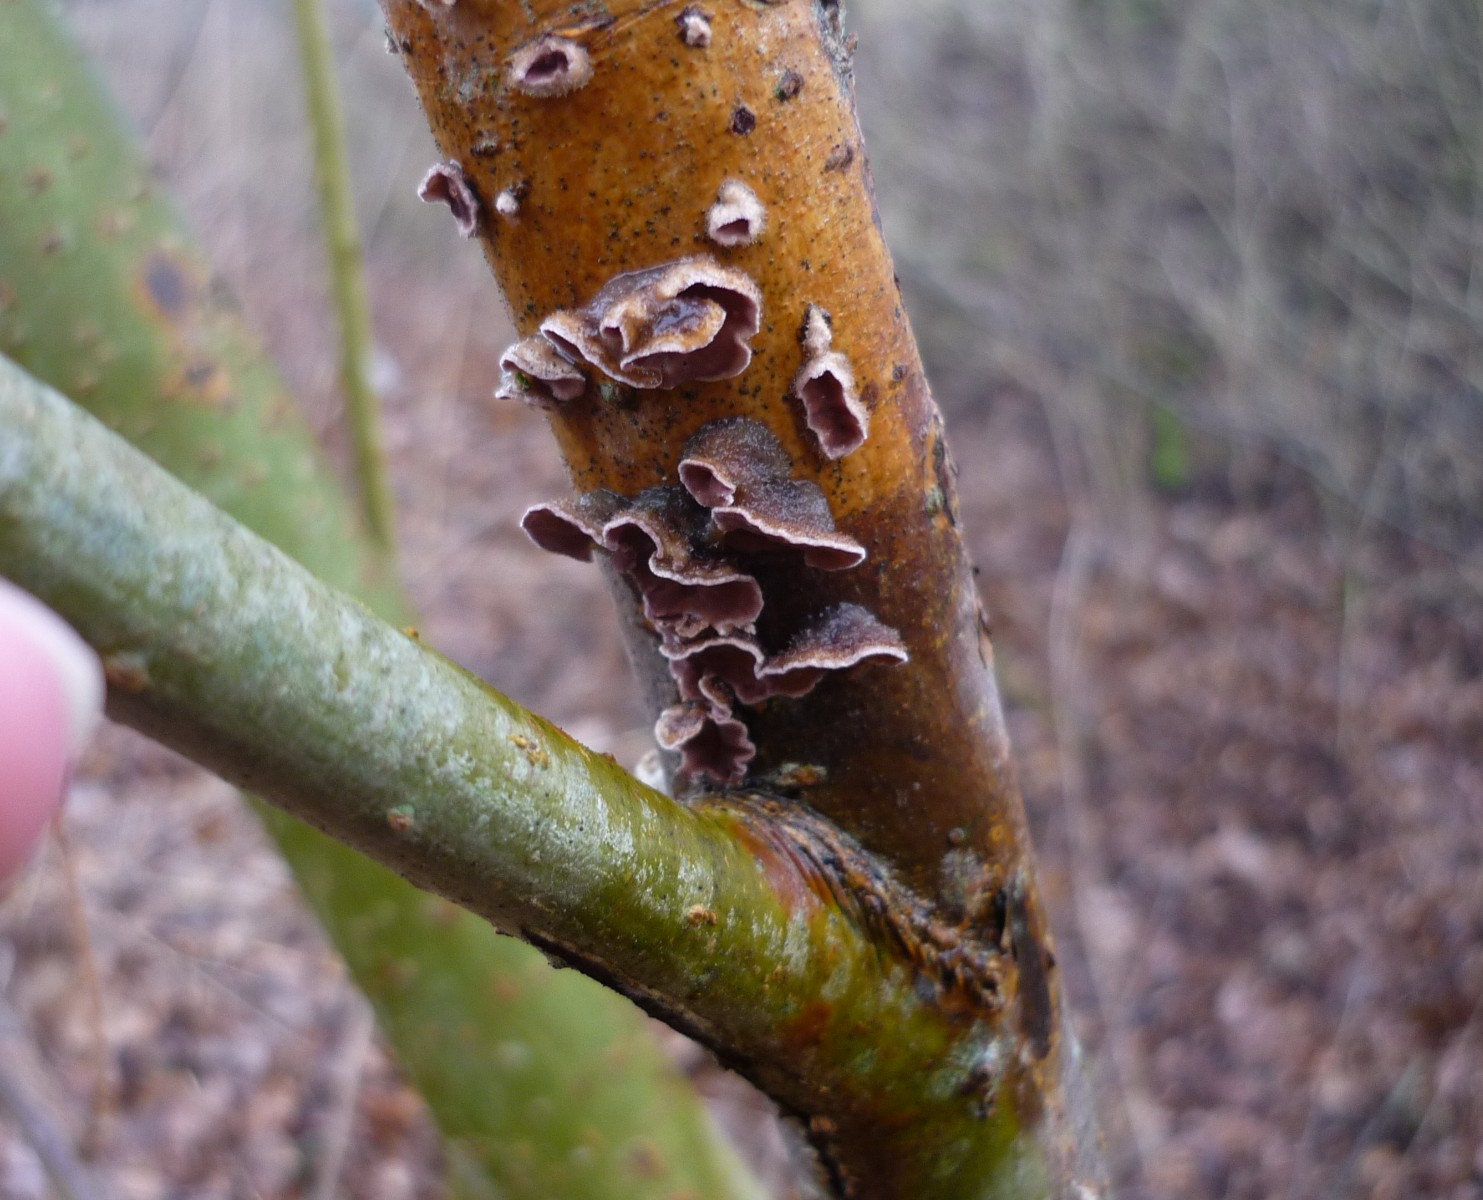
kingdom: Fungi
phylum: Basidiomycota
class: Agaricomycetes
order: Agaricales
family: Cyphellaceae
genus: Chondrostereum
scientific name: Chondrostereum purpureum
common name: purpurlædersvamp
